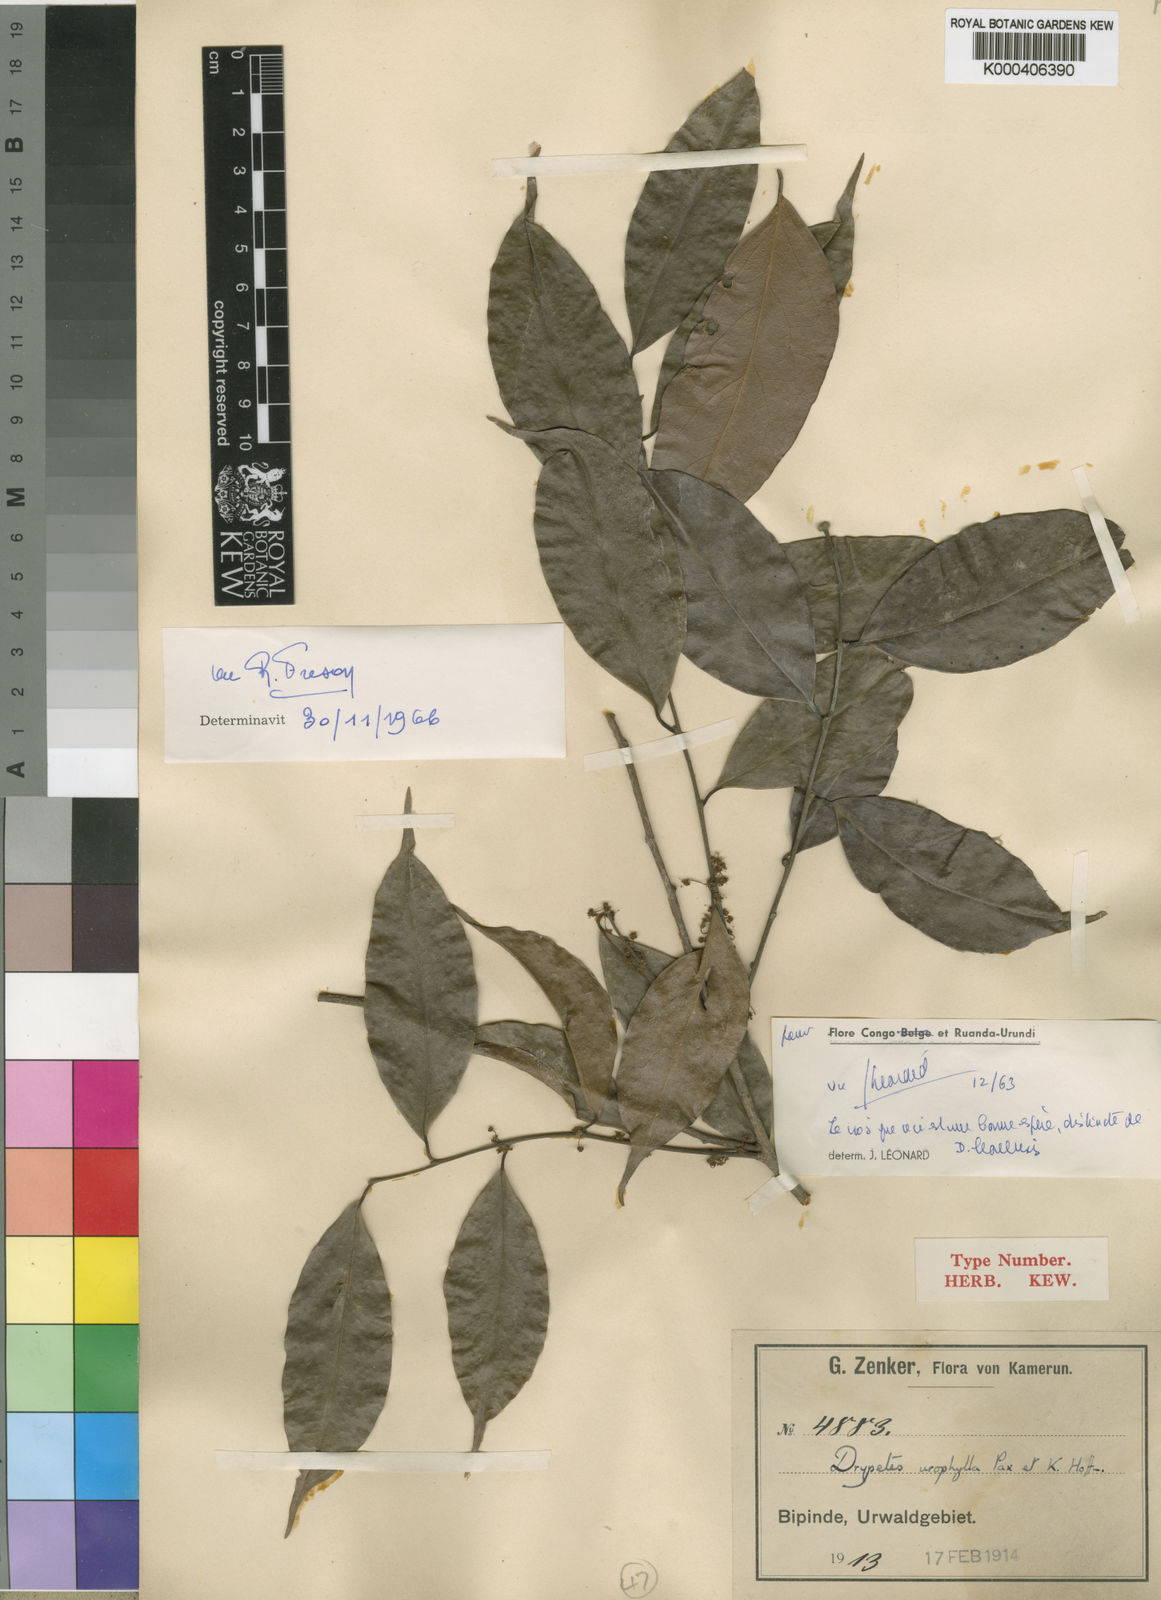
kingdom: Plantae
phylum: Tracheophyta
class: Magnoliopsida
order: Malpighiales
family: Putranjivaceae
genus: Drypetes
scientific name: Drypetes leonensis
